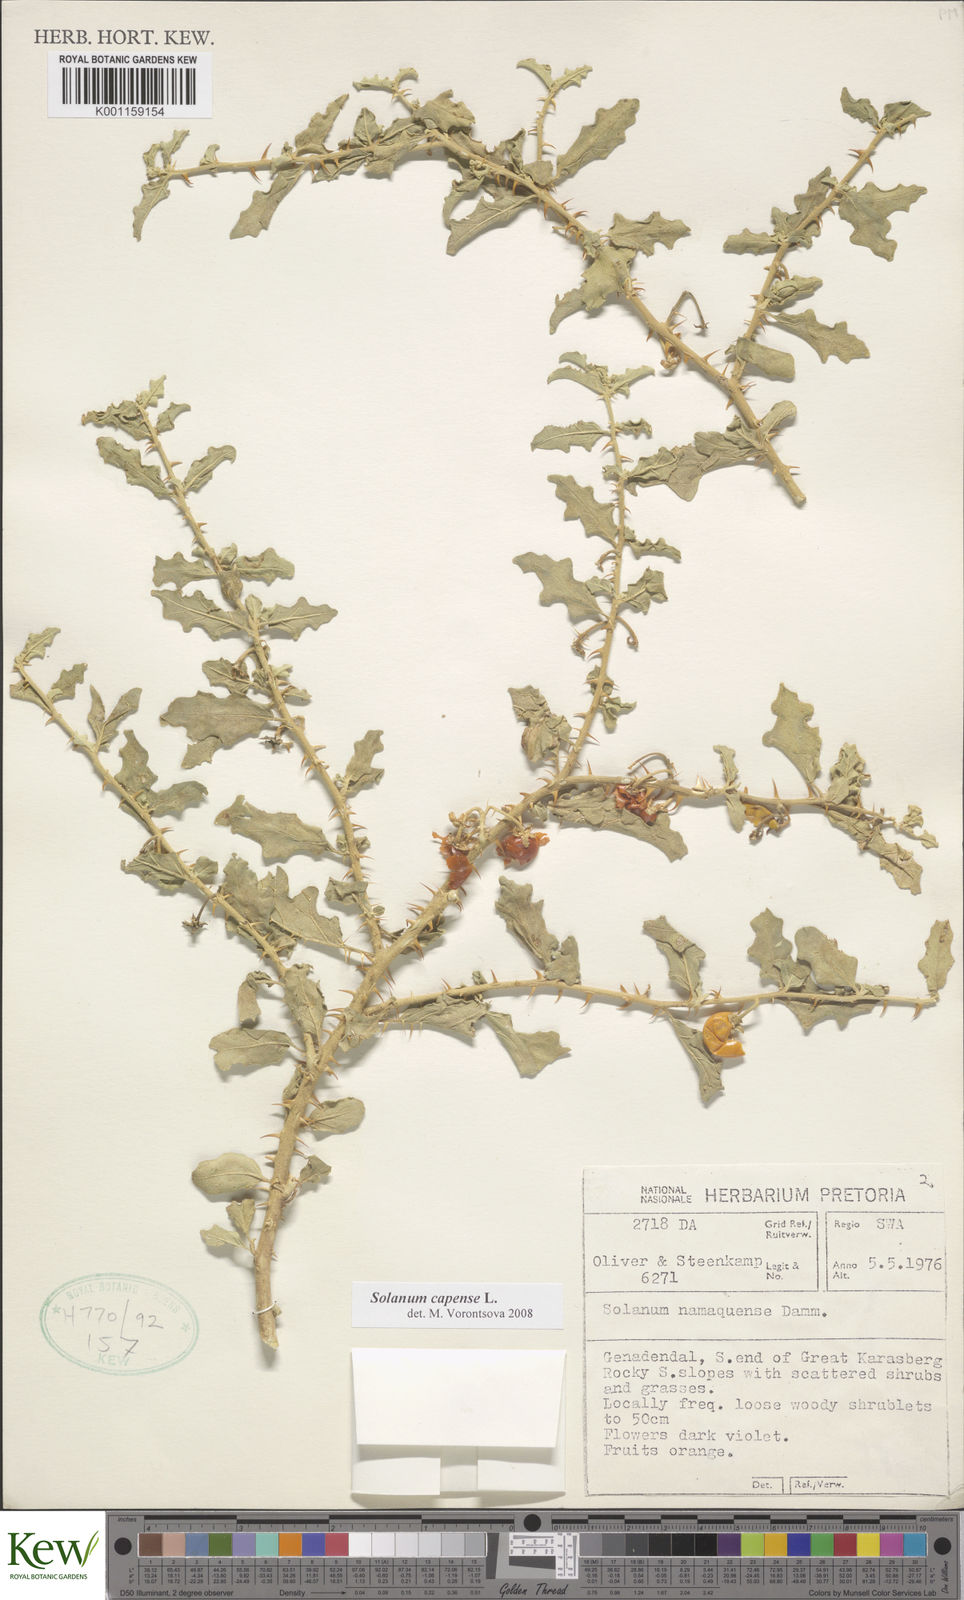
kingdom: Plantae
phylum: Tracheophyta
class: Magnoliopsida
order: Solanales
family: Solanaceae
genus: Solanum
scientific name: Solanum capense
